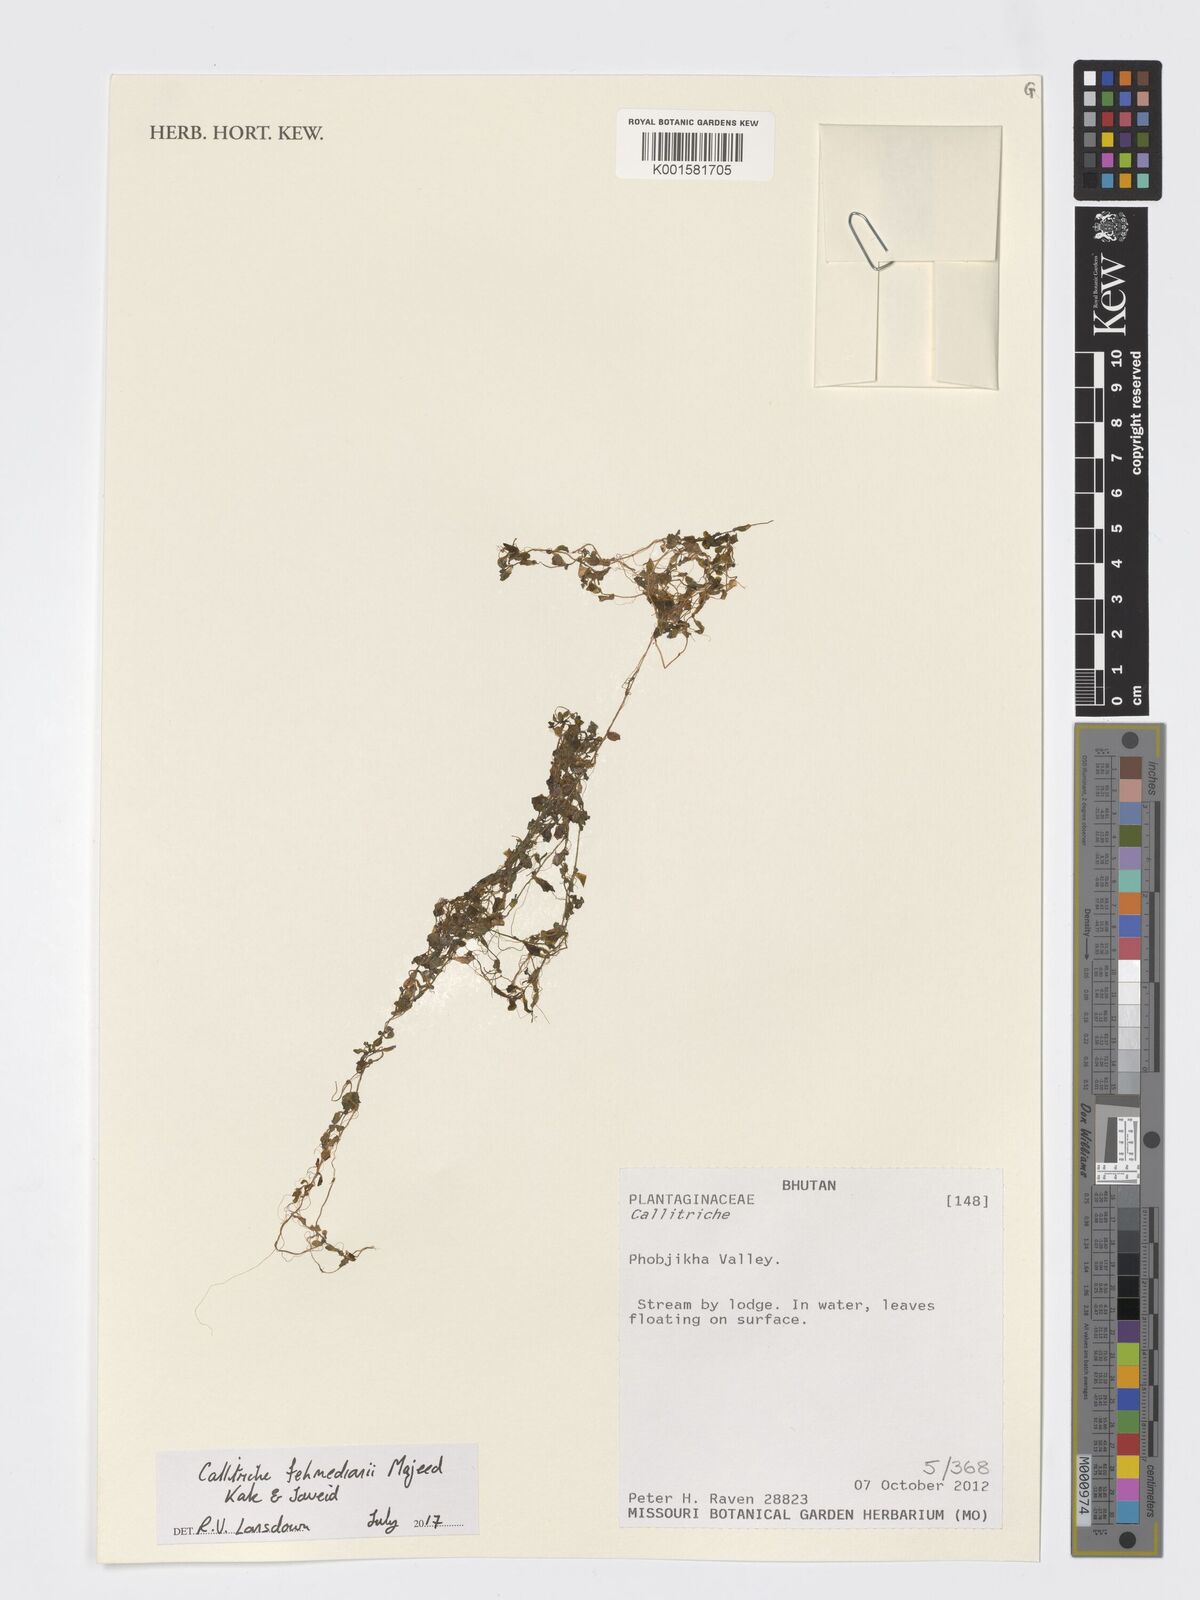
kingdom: Plantae
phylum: Tracheophyta
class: Magnoliopsida
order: Lamiales
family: Plantaginaceae
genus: Callitriche
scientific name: Callitriche fehmedianii
